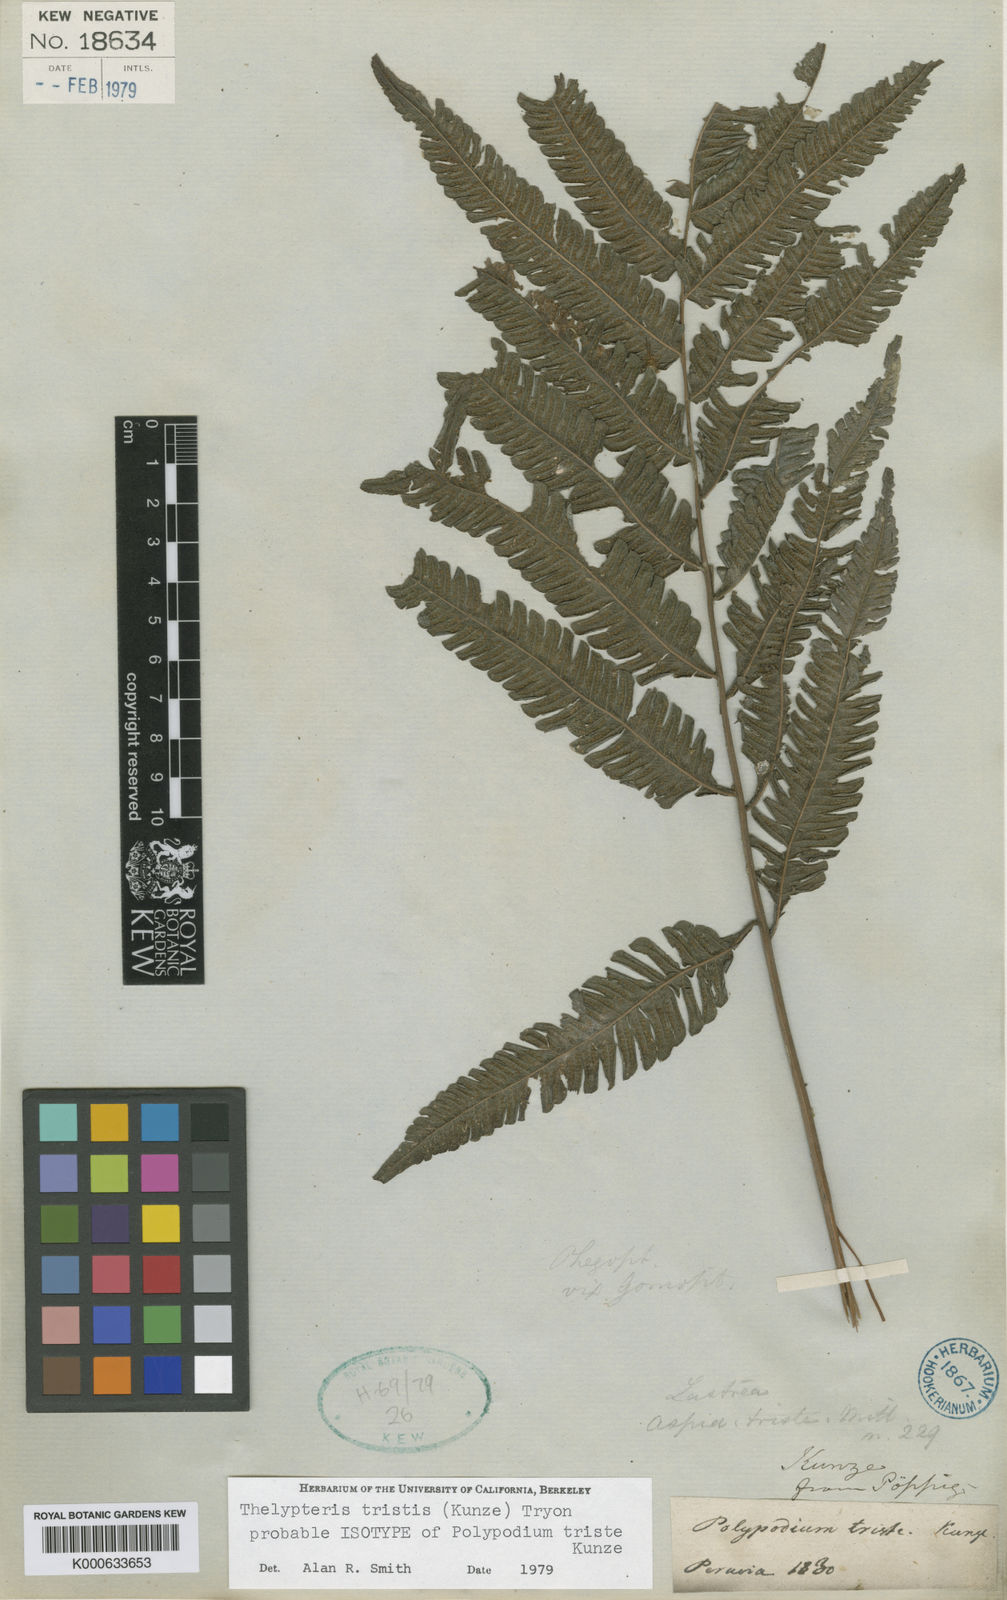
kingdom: Plantae
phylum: Tracheophyta
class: Polypodiopsida
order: Polypodiales
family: Thelypteridaceae
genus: Goniopteris
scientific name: Goniopteris tristis
